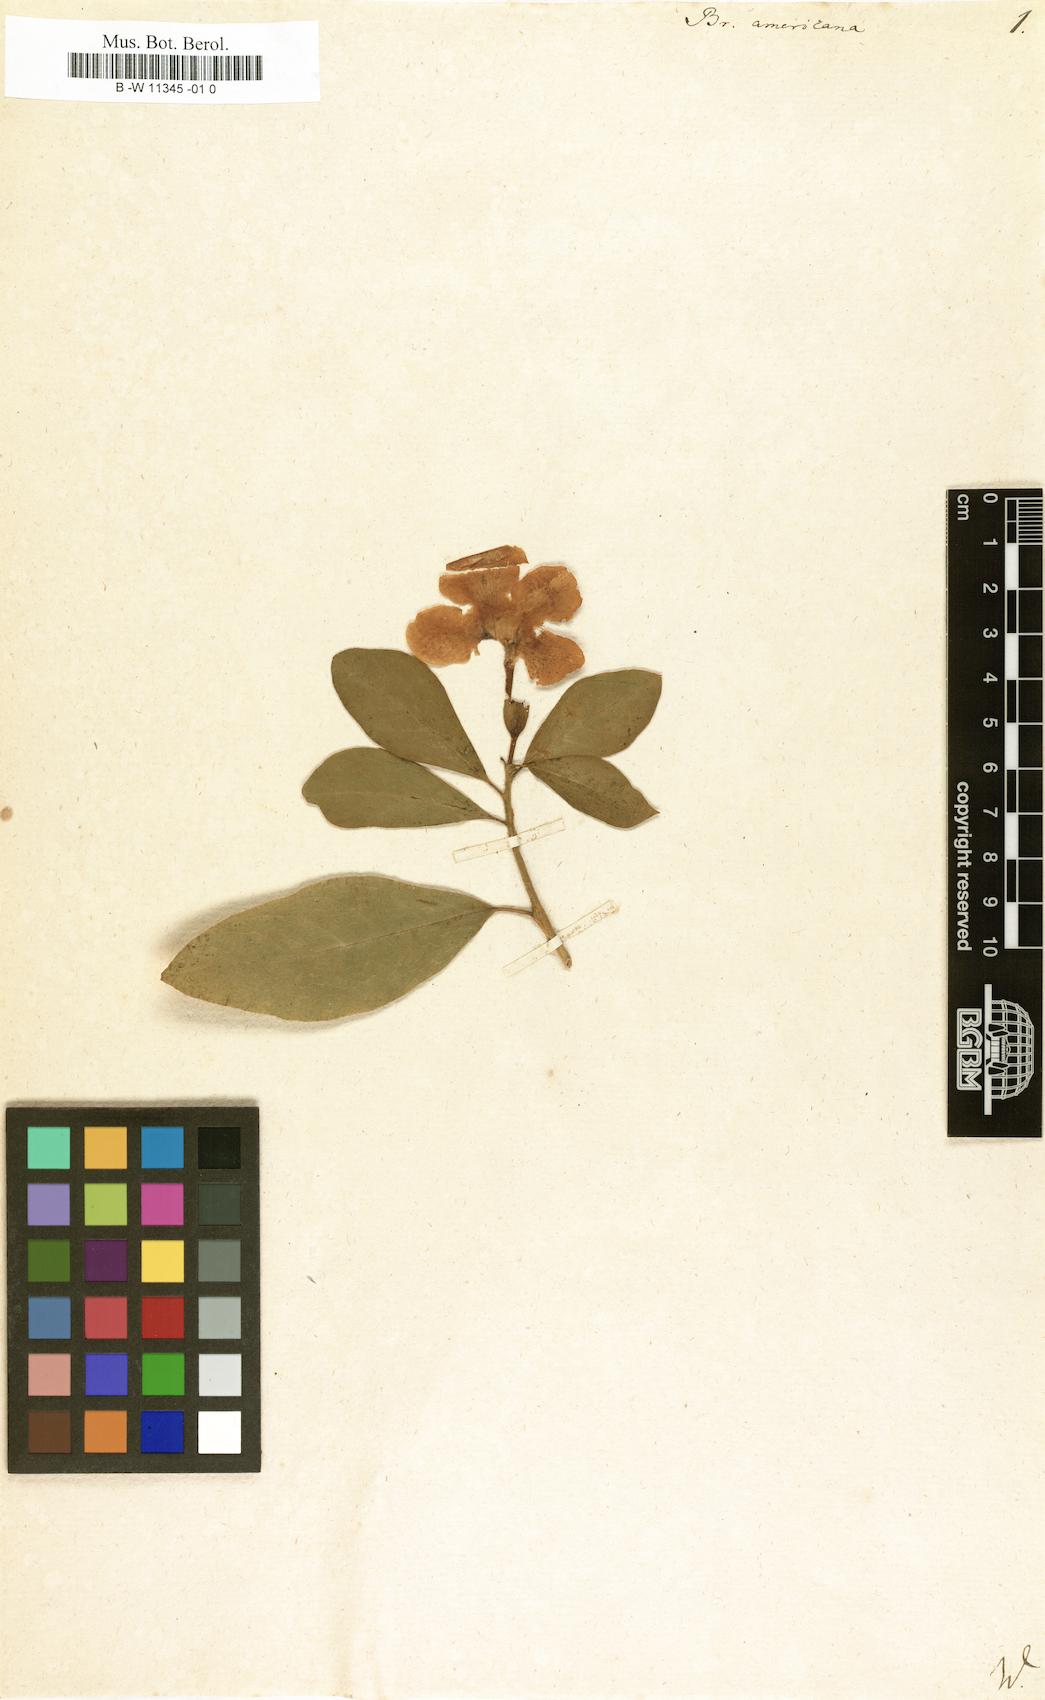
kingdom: Plantae
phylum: Tracheophyta
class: Magnoliopsida
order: Solanales
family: Solanaceae
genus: Brunfelsia
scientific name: Brunfelsia americana
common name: Lady-of-the-night
